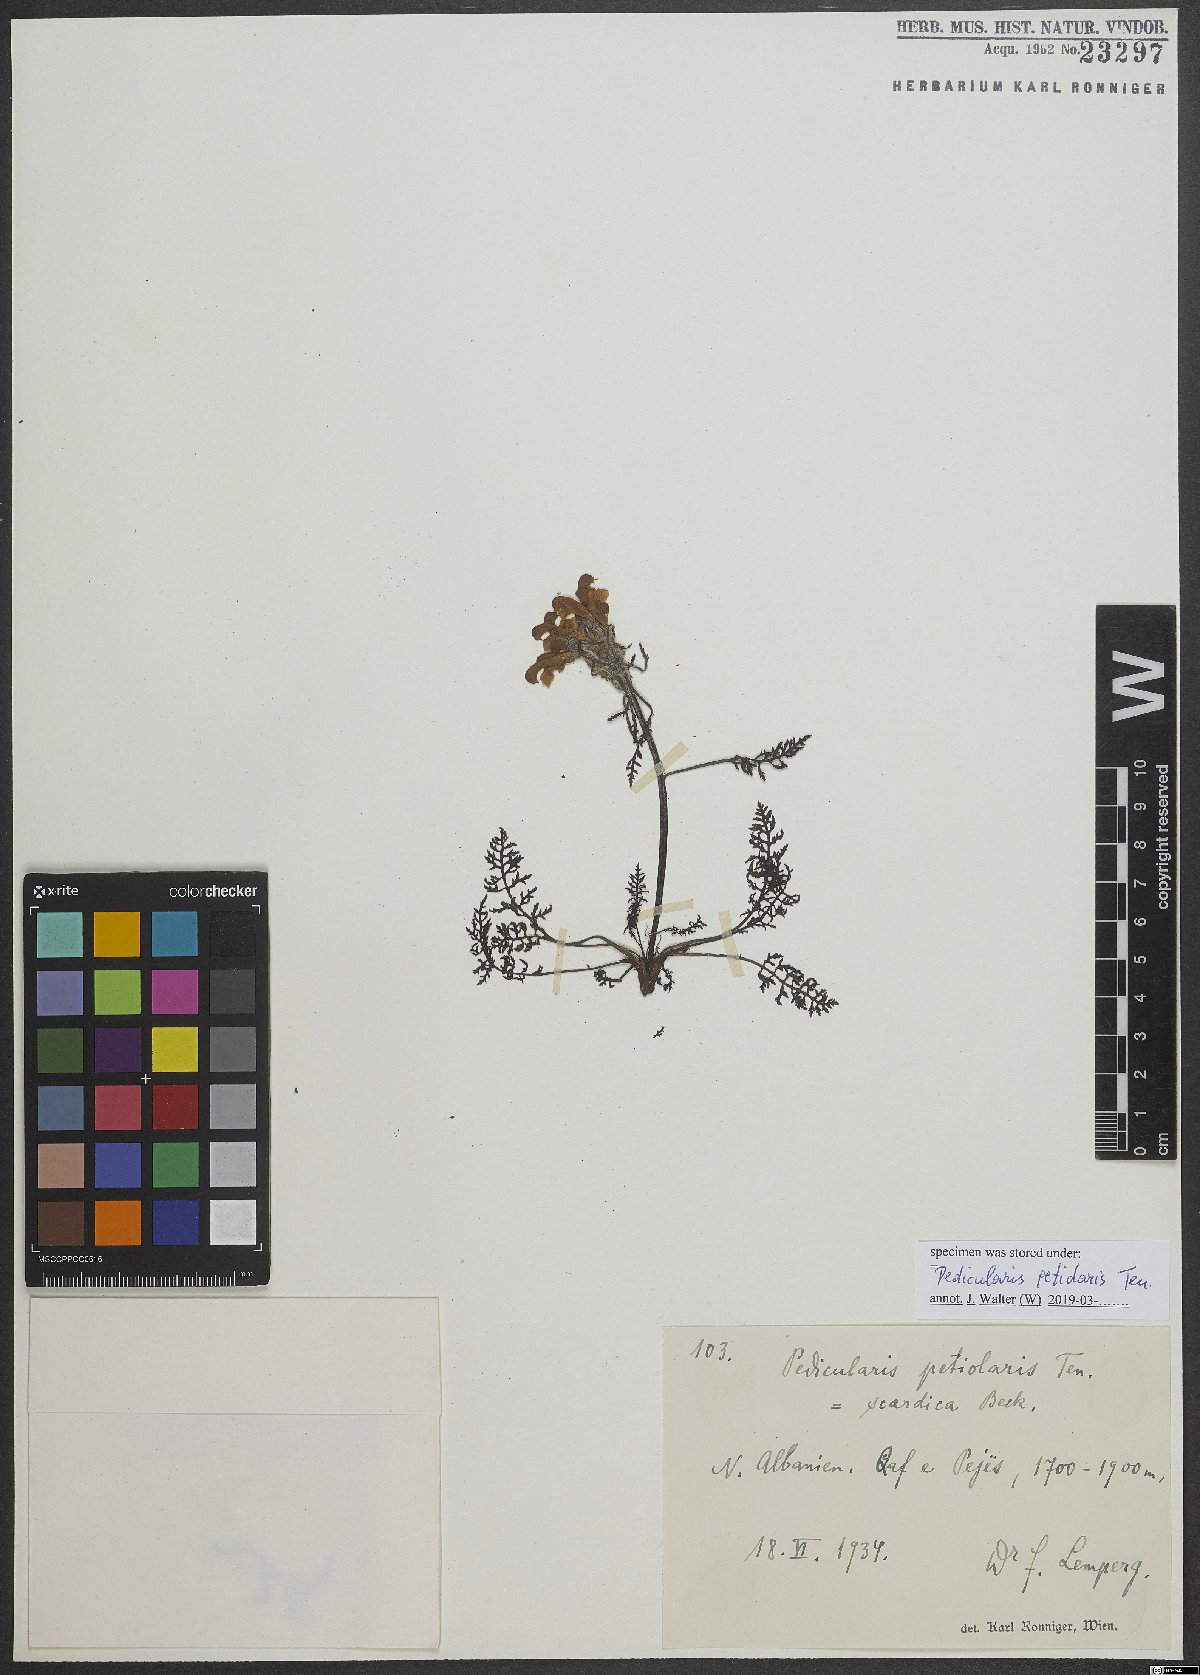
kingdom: Plantae
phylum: Tracheophyta
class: Magnoliopsida
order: Lamiales
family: Orobanchaceae
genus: Pedicularis
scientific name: Pedicularis petiolaris
